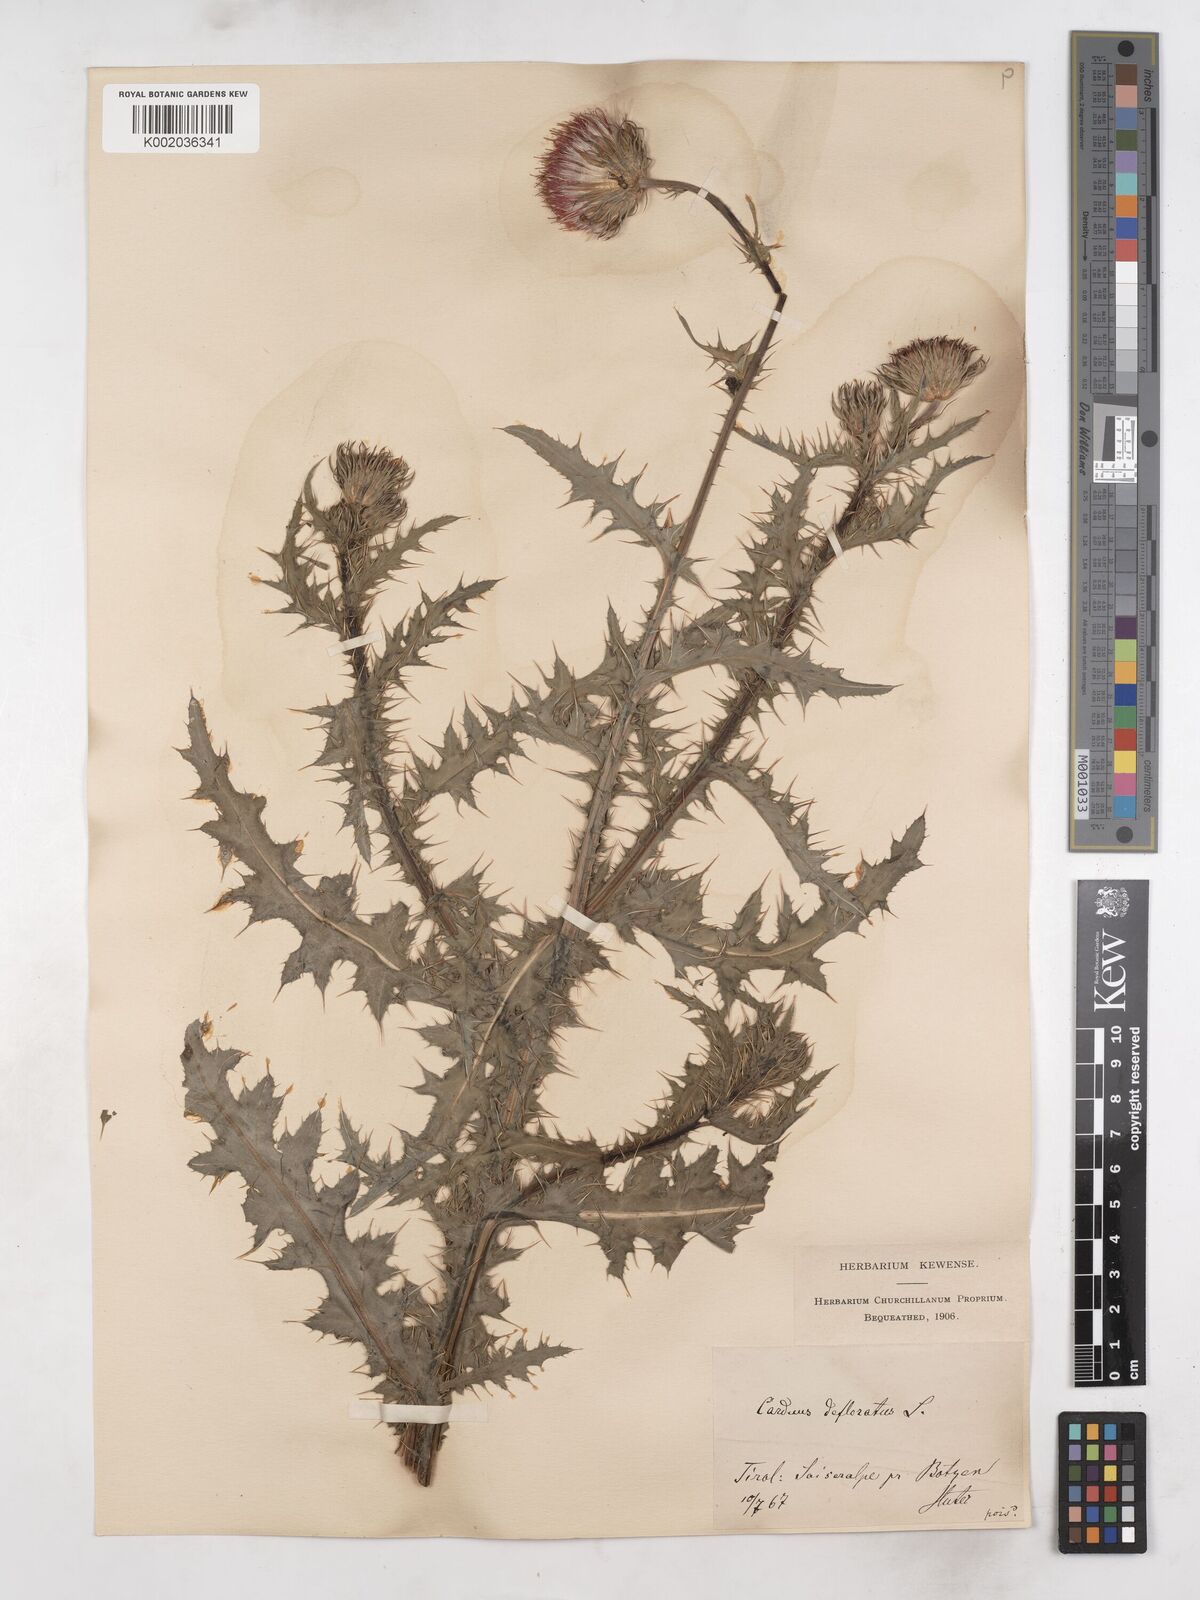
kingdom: Plantae
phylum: Tracheophyta
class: Magnoliopsida
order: Asterales
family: Asteraceae
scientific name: Asteraceae
